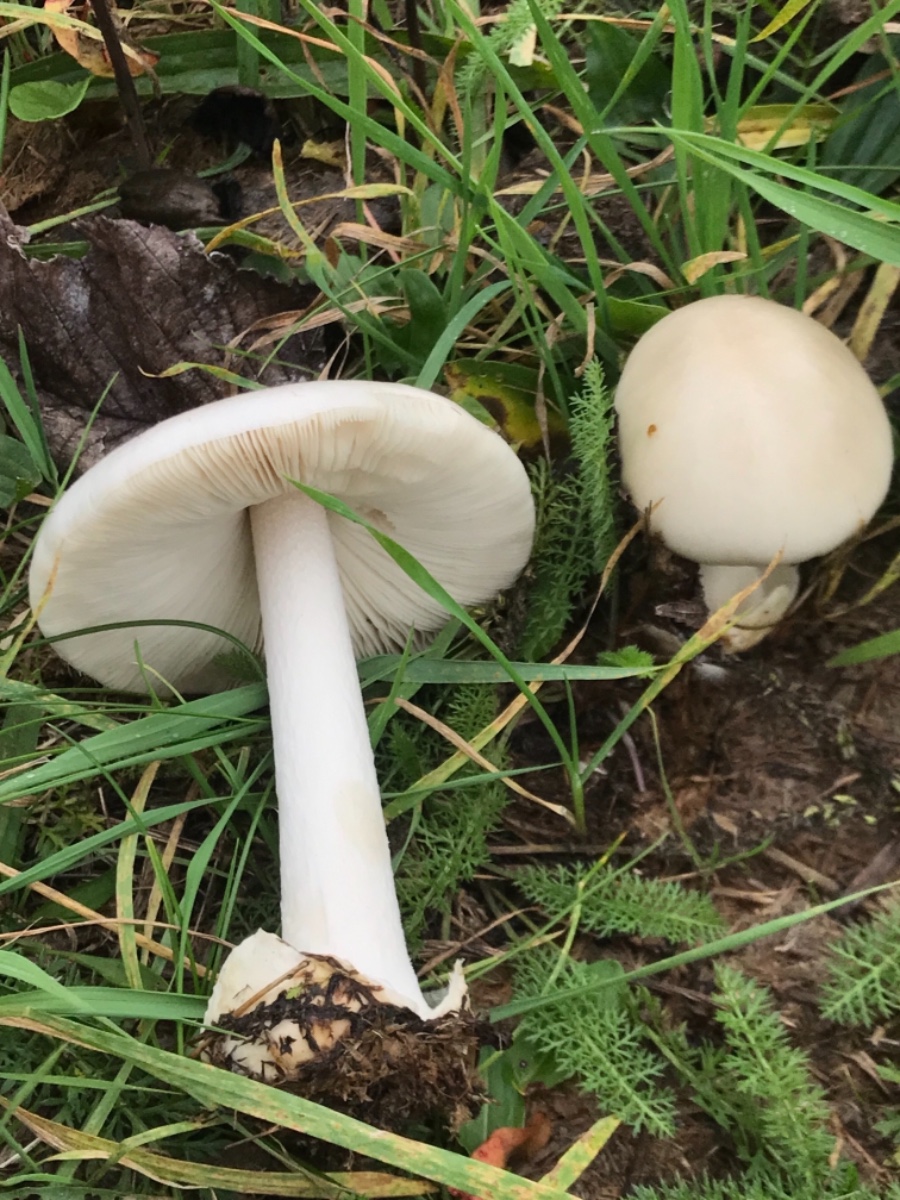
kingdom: Fungi
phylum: Basidiomycota
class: Agaricomycetes
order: Agaricales
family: Pluteaceae
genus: Volvopluteus
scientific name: Volvopluteus gloiocephalus
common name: høj posesvamp
